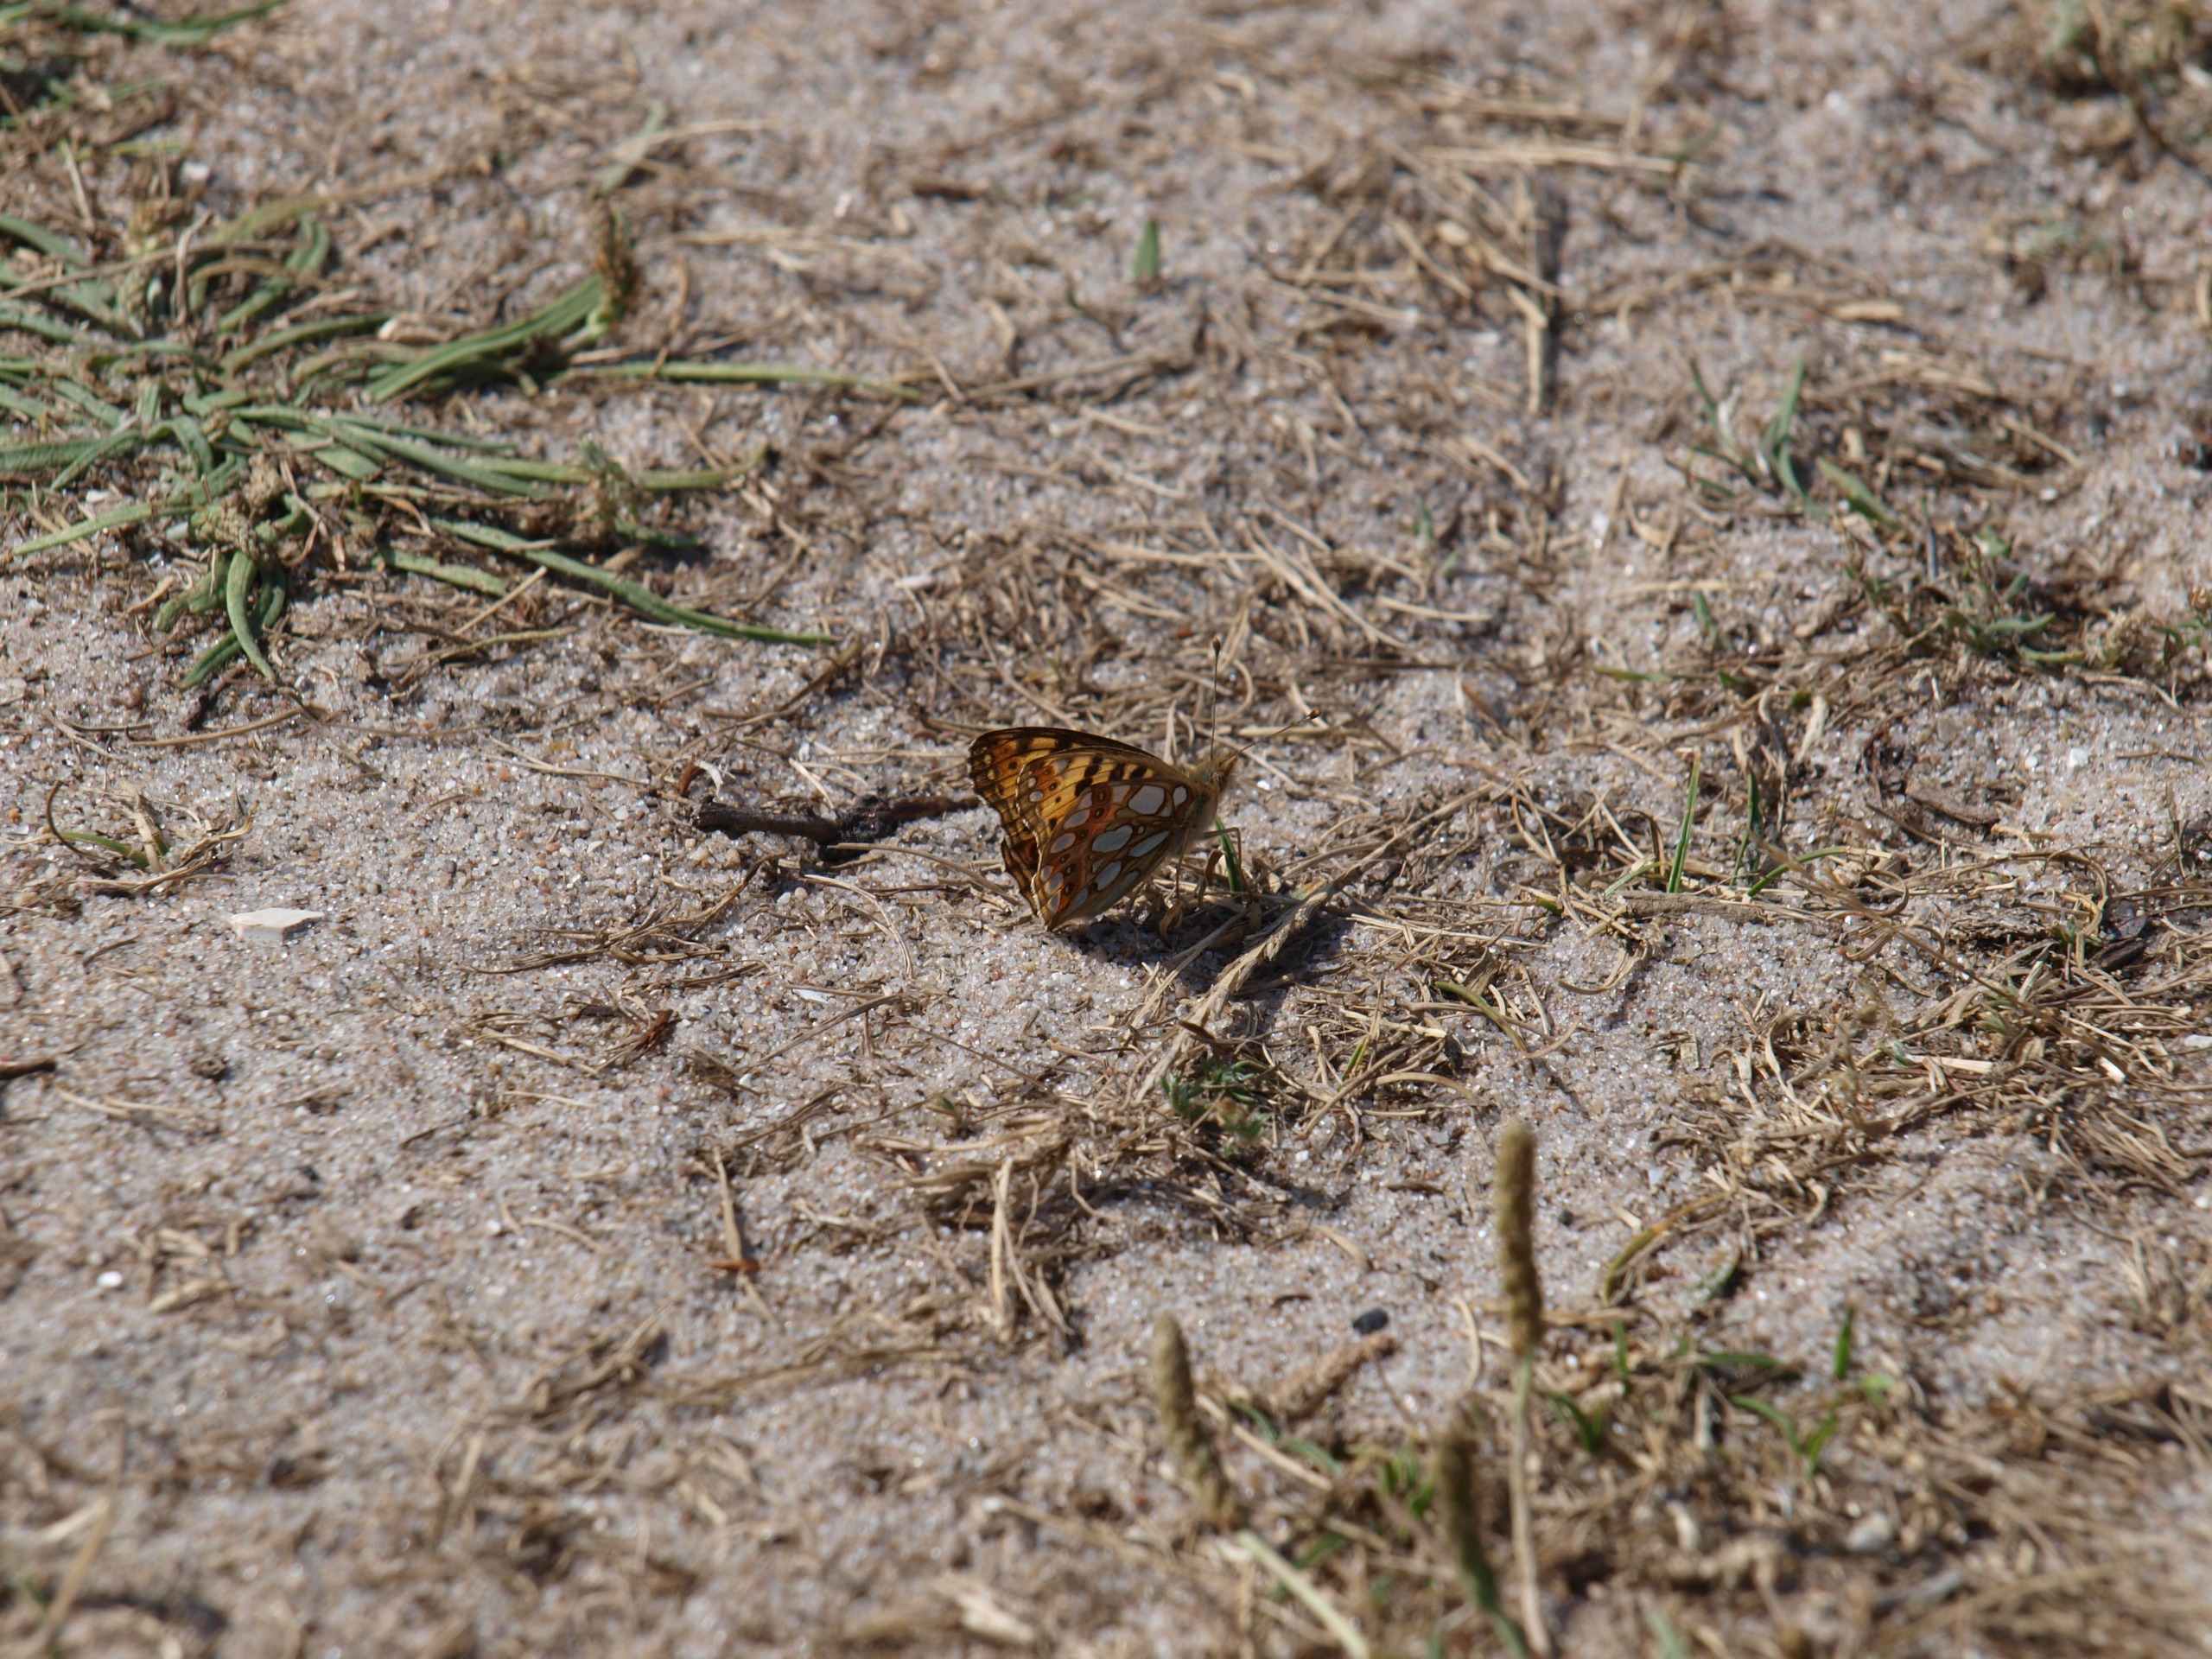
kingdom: Animalia
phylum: Arthropoda
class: Insecta
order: Lepidoptera
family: Nymphalidae
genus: Issoria
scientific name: Issoria lathonia
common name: Storplettet perlemorsommerfugl
